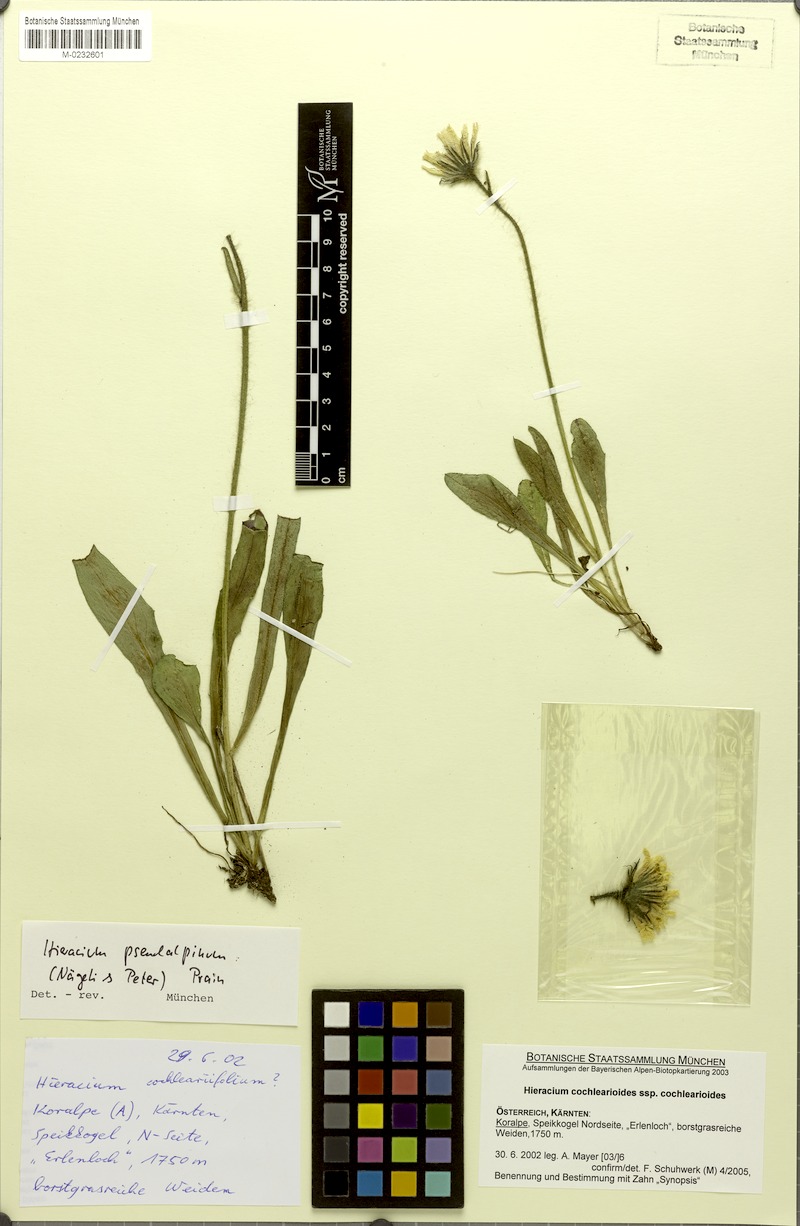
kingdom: Plantae
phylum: Tracheophyta
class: Magnoliopsida
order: Asterales
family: Asteraceae
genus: Hieracium
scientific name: Hieracium pseudalpinum
